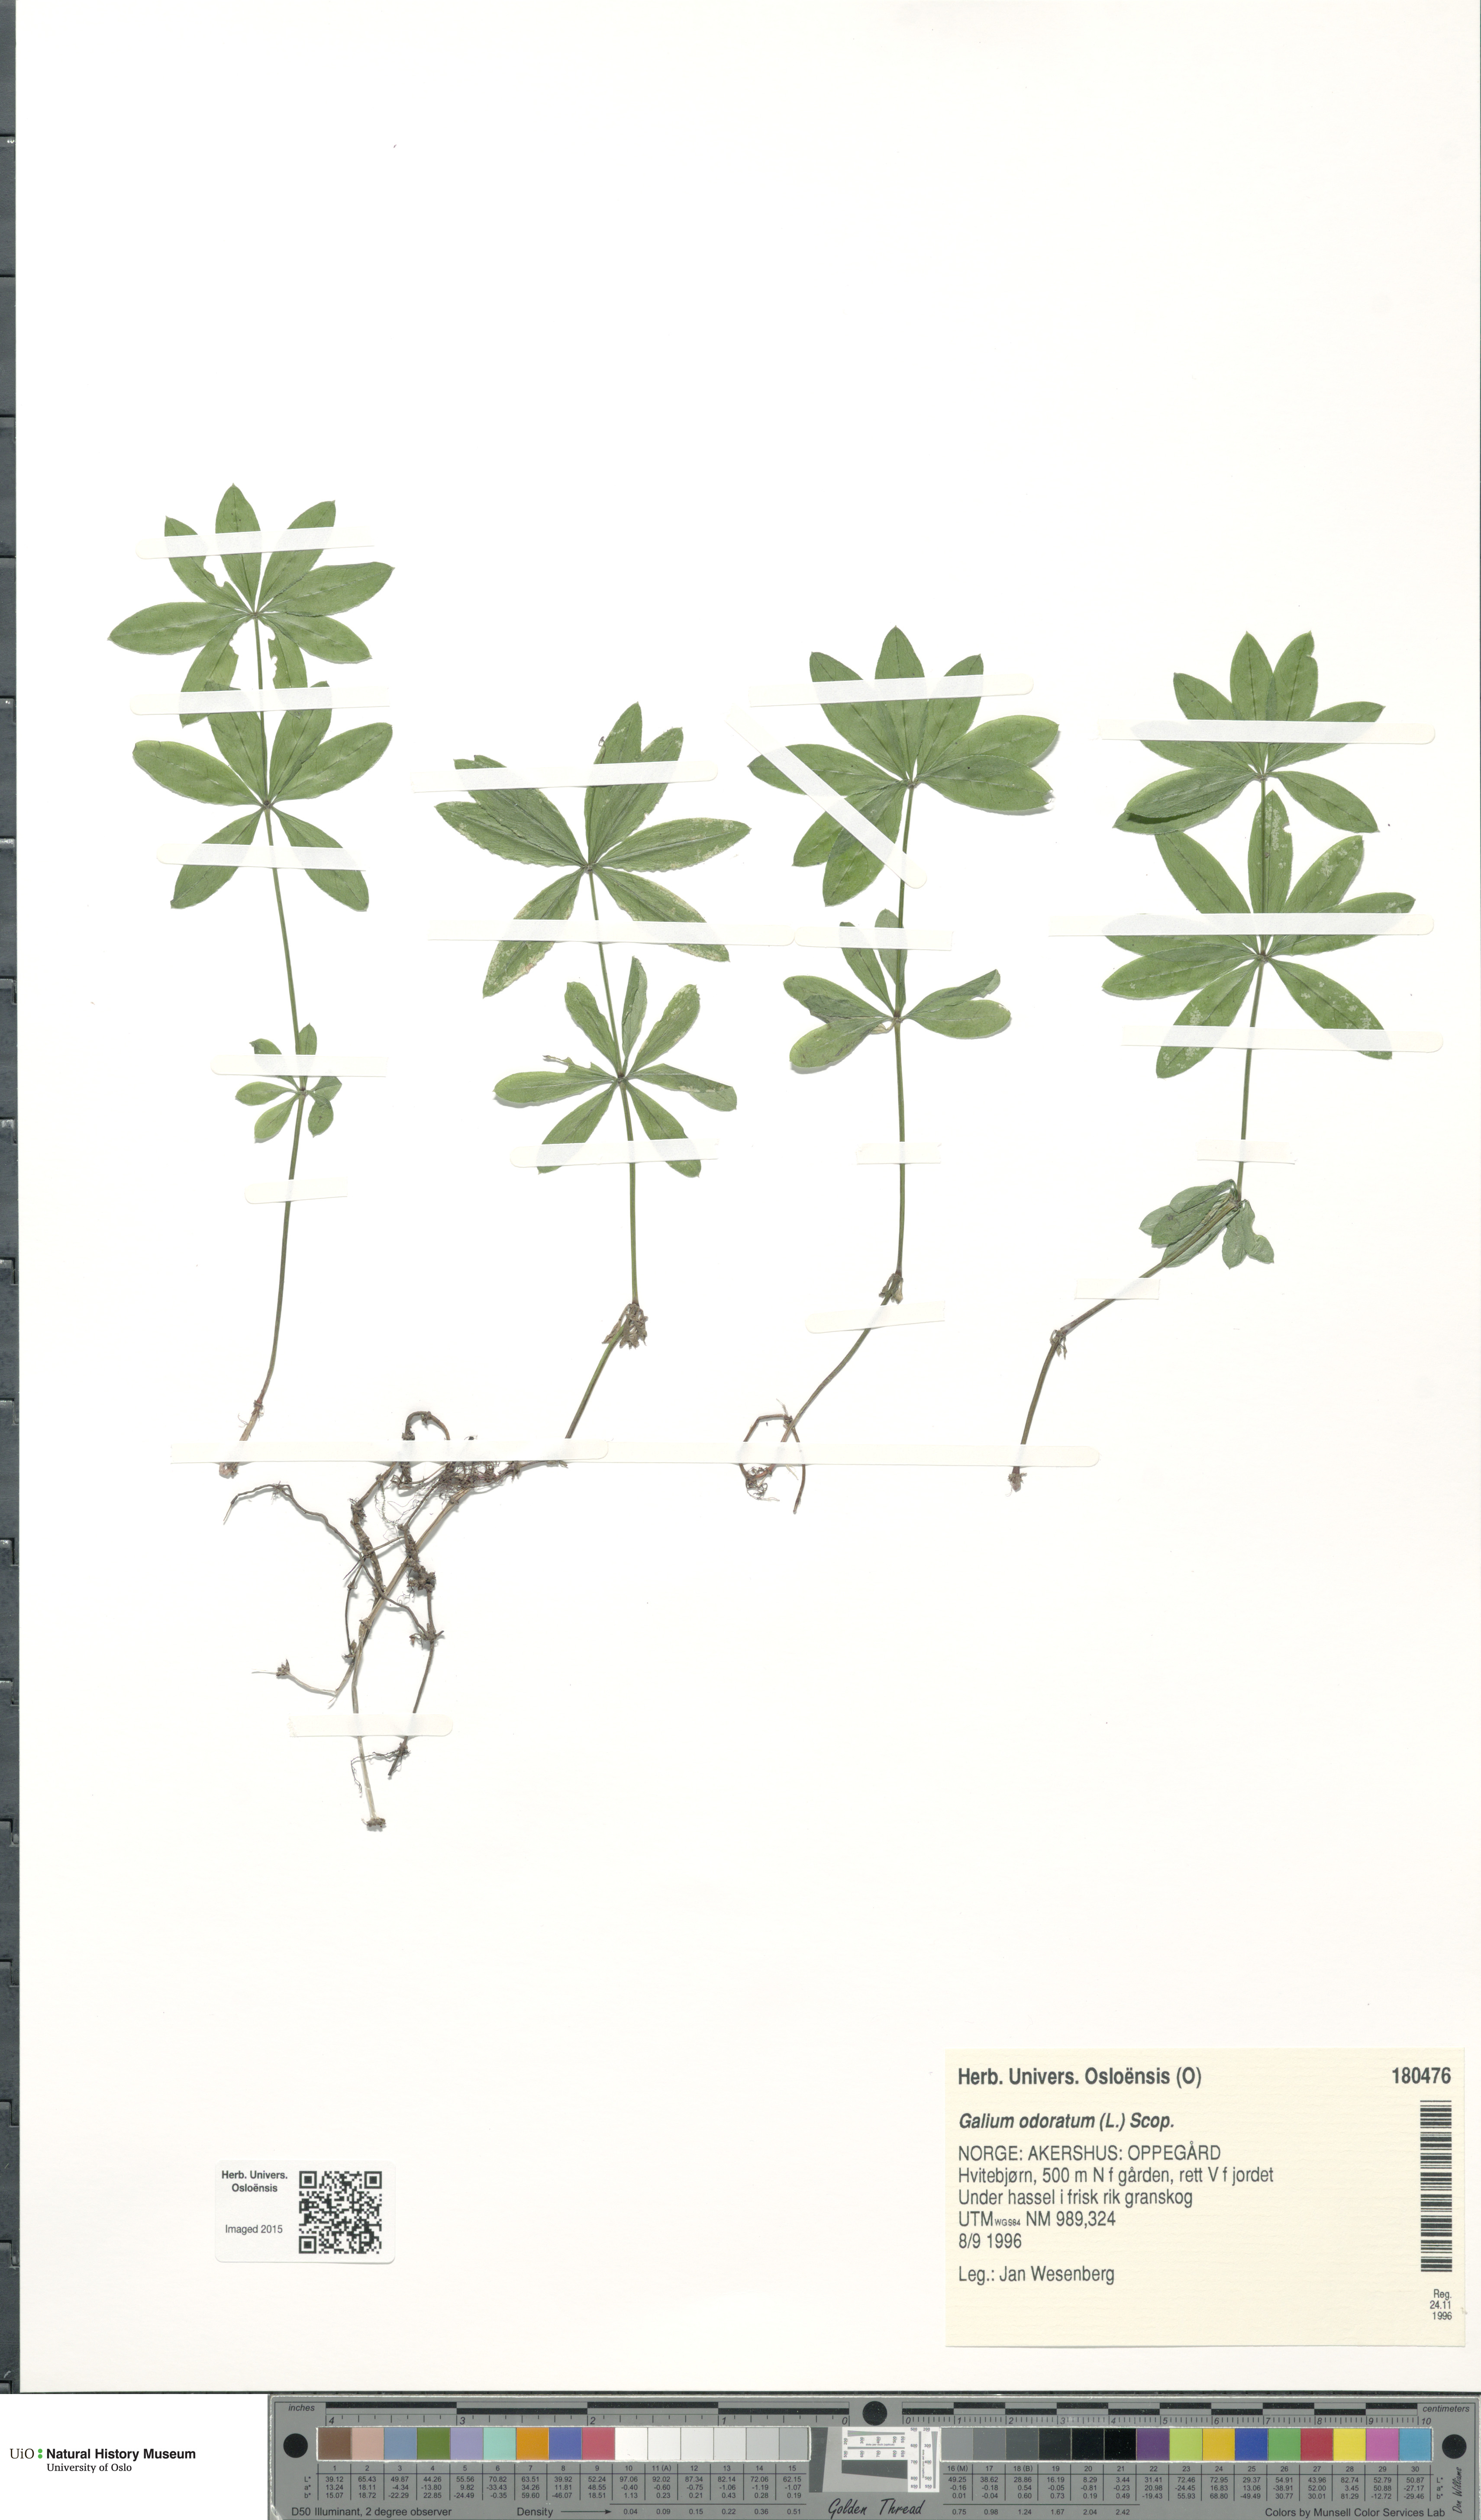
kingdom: Plantae
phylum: Tracheophyta
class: Magnoliopsida
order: Gentianales
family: Rubiaceae
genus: Galium
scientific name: Galium odoratum
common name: Sweet woodruff
